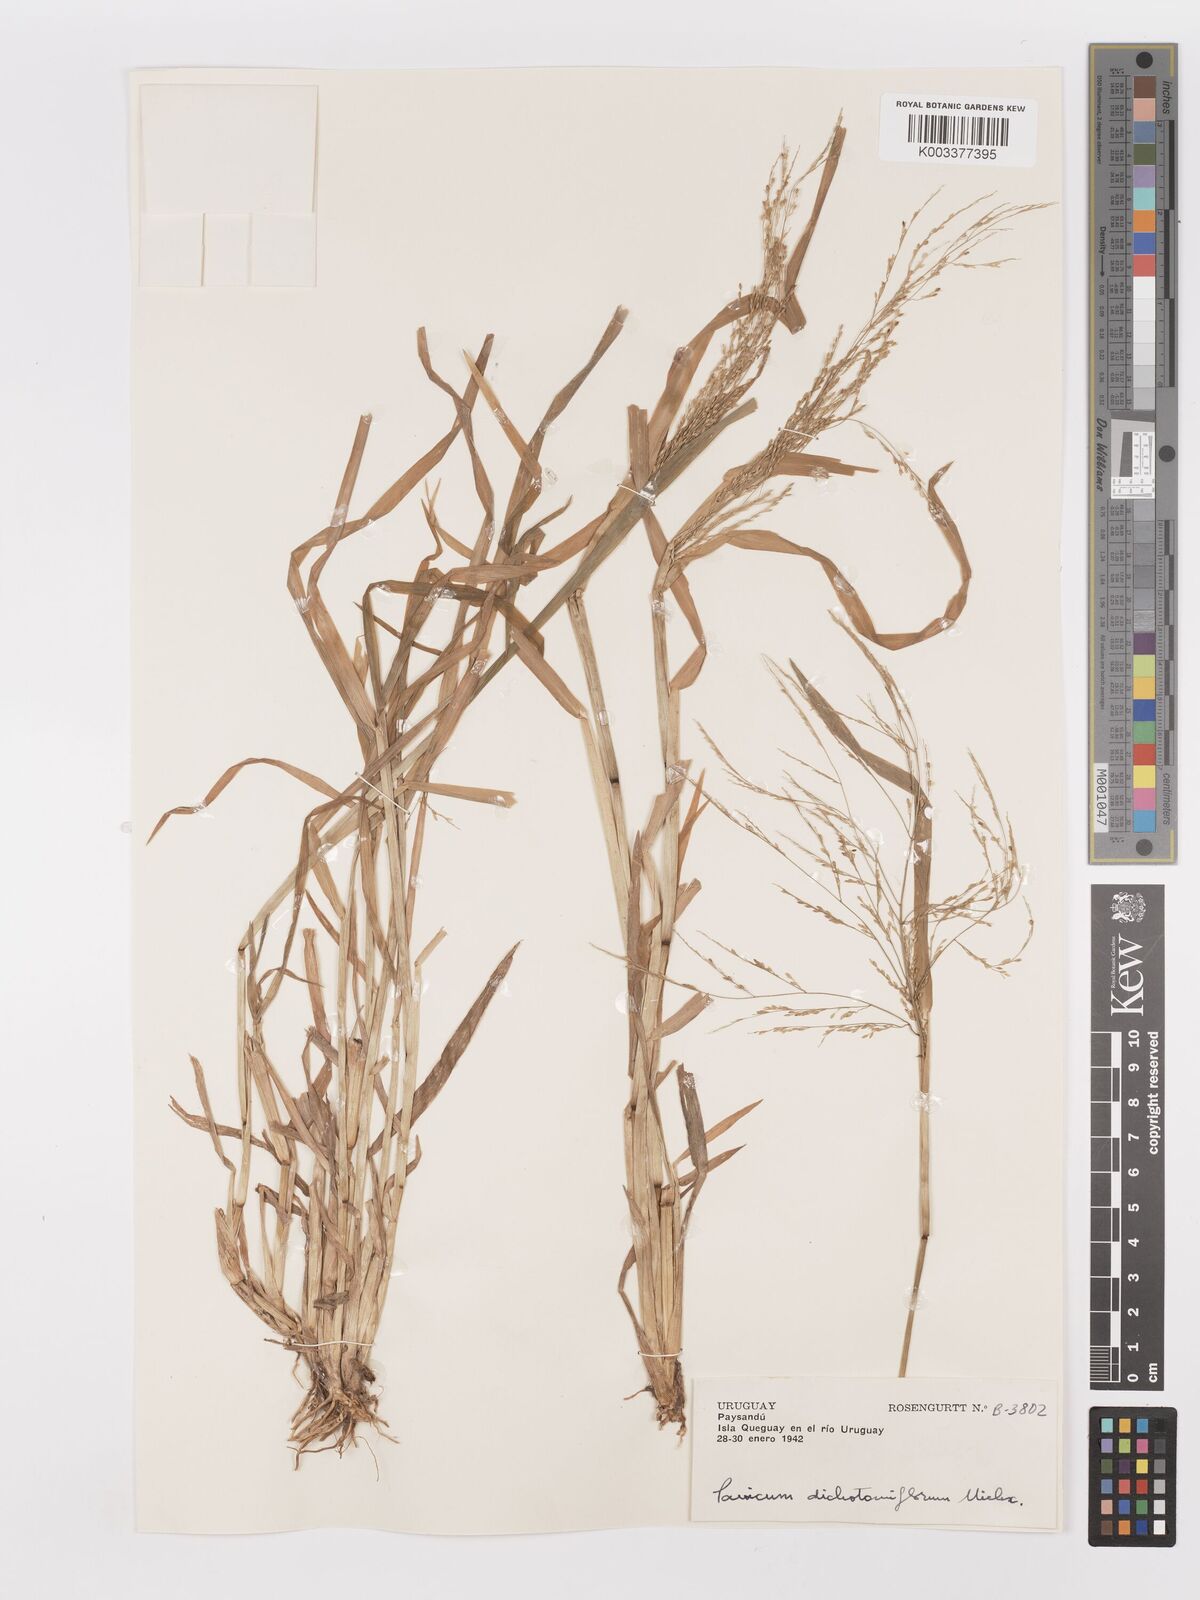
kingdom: Plantae
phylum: Tracheophyta
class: Liliopsida
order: Poales
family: Poaceae
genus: Panicum
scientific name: Panicum dichotomiflorum
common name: Autumn millet
